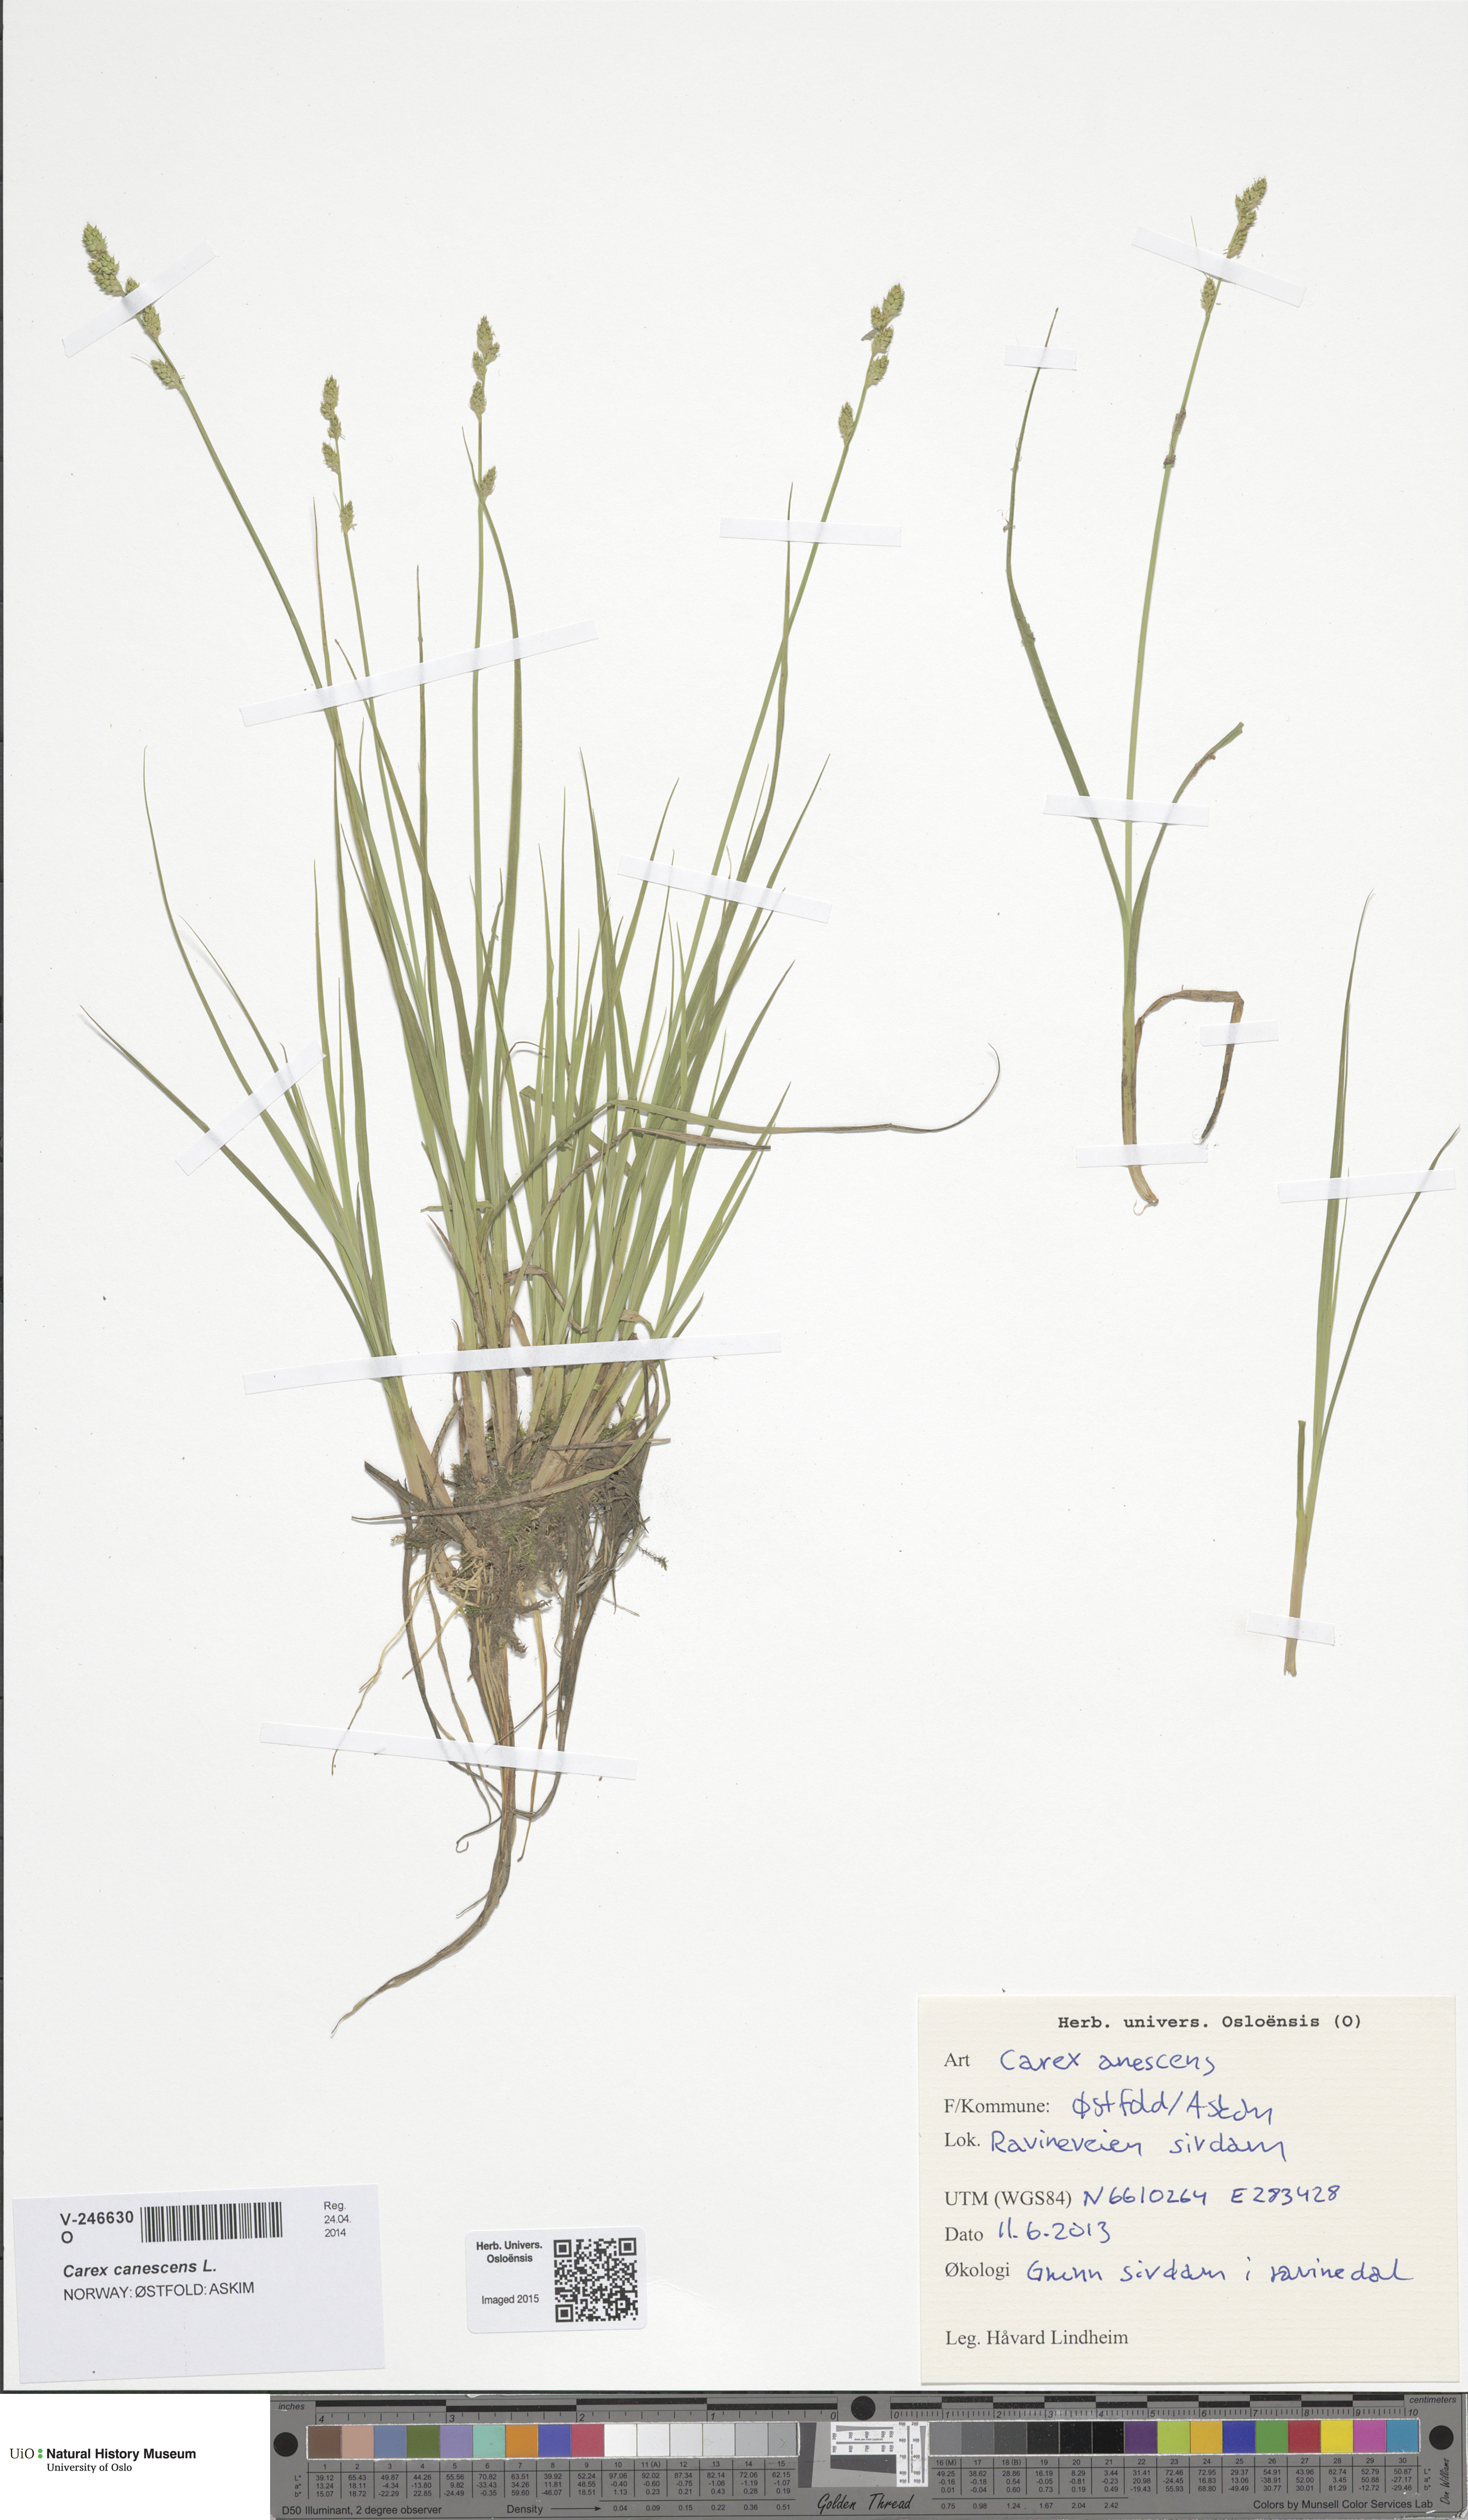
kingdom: Plantae
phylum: Tracheophyta
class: Liliopsida
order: Poales
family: Cyperaceae
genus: Carex
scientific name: Carex canescens
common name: White sedge
